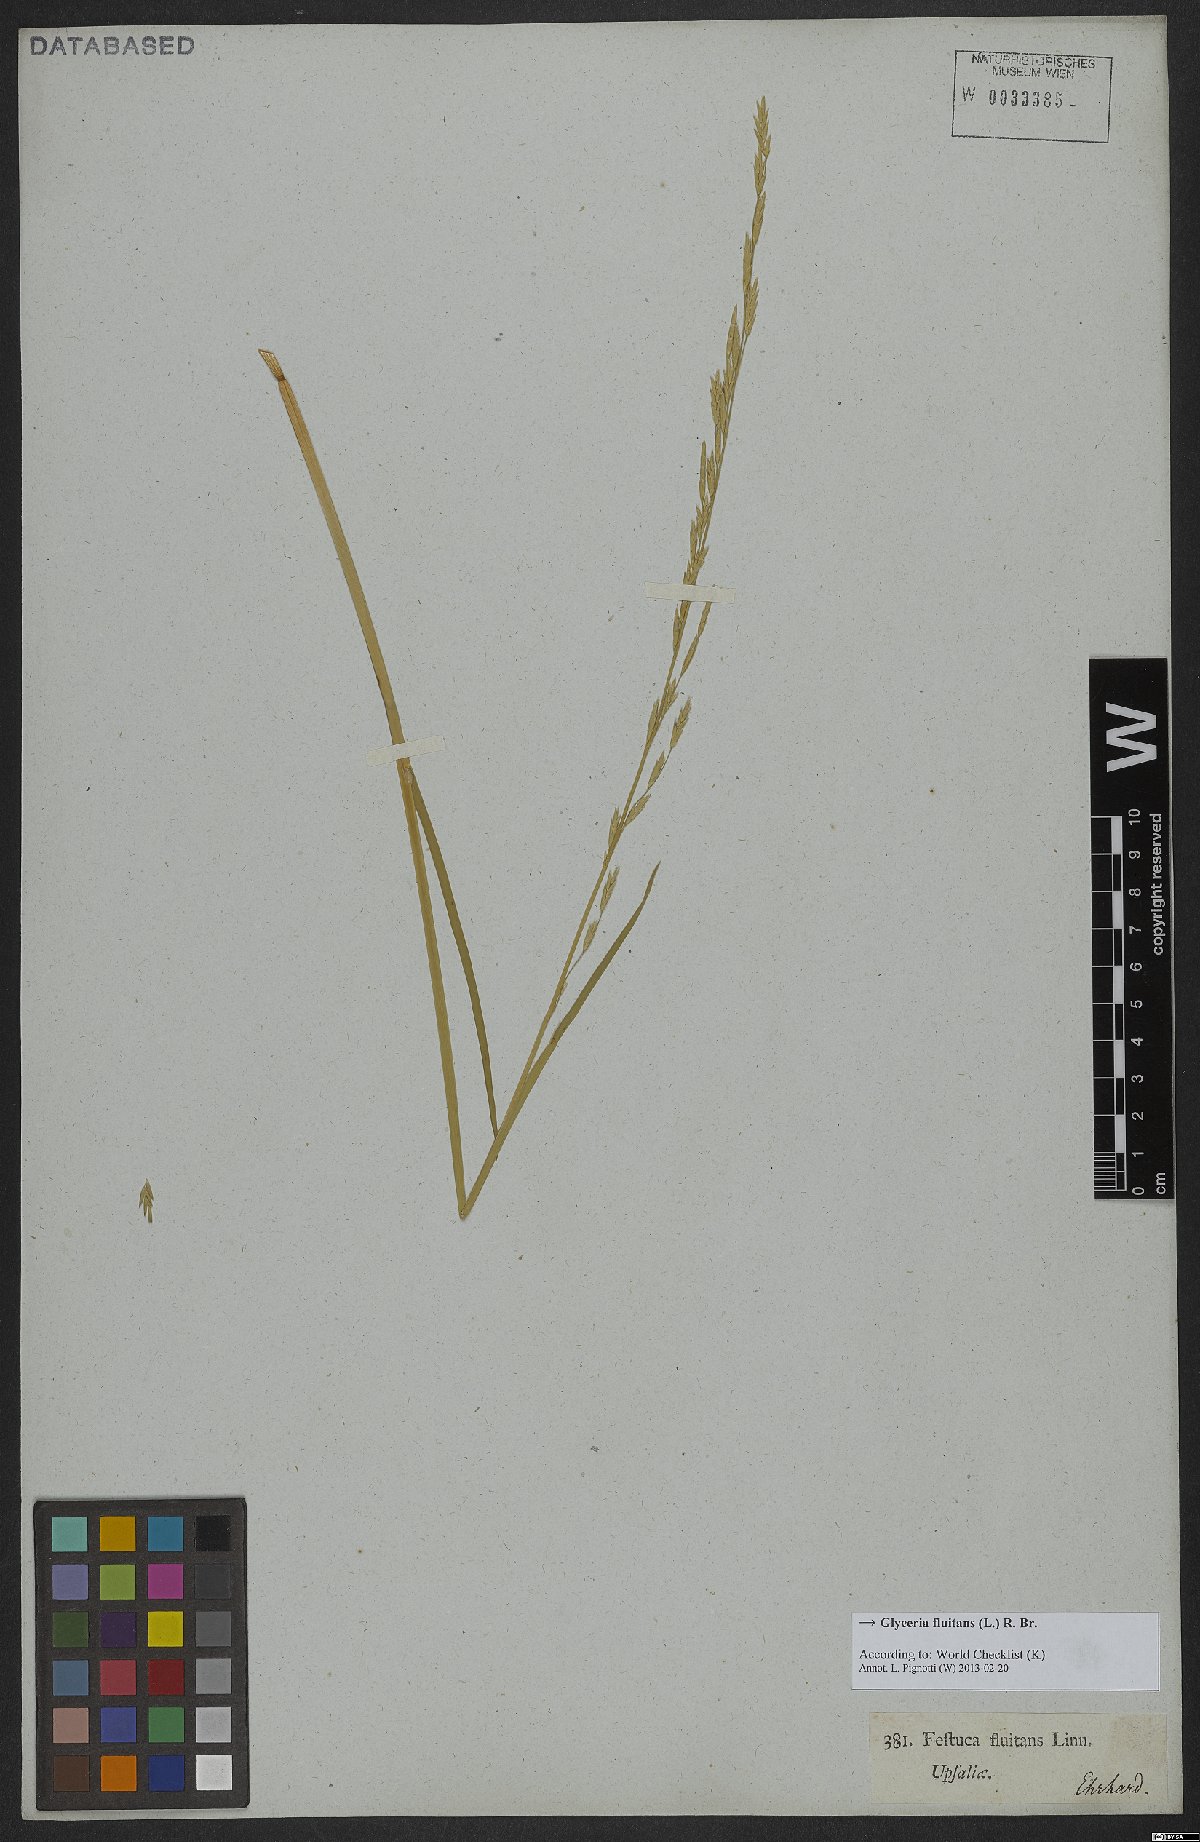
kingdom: Plantae
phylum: Tracheophyta
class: Liliopsida
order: Poales
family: Poaceae
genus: Glyceria
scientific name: Glyceria fluitans
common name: Floating sweet-grass
